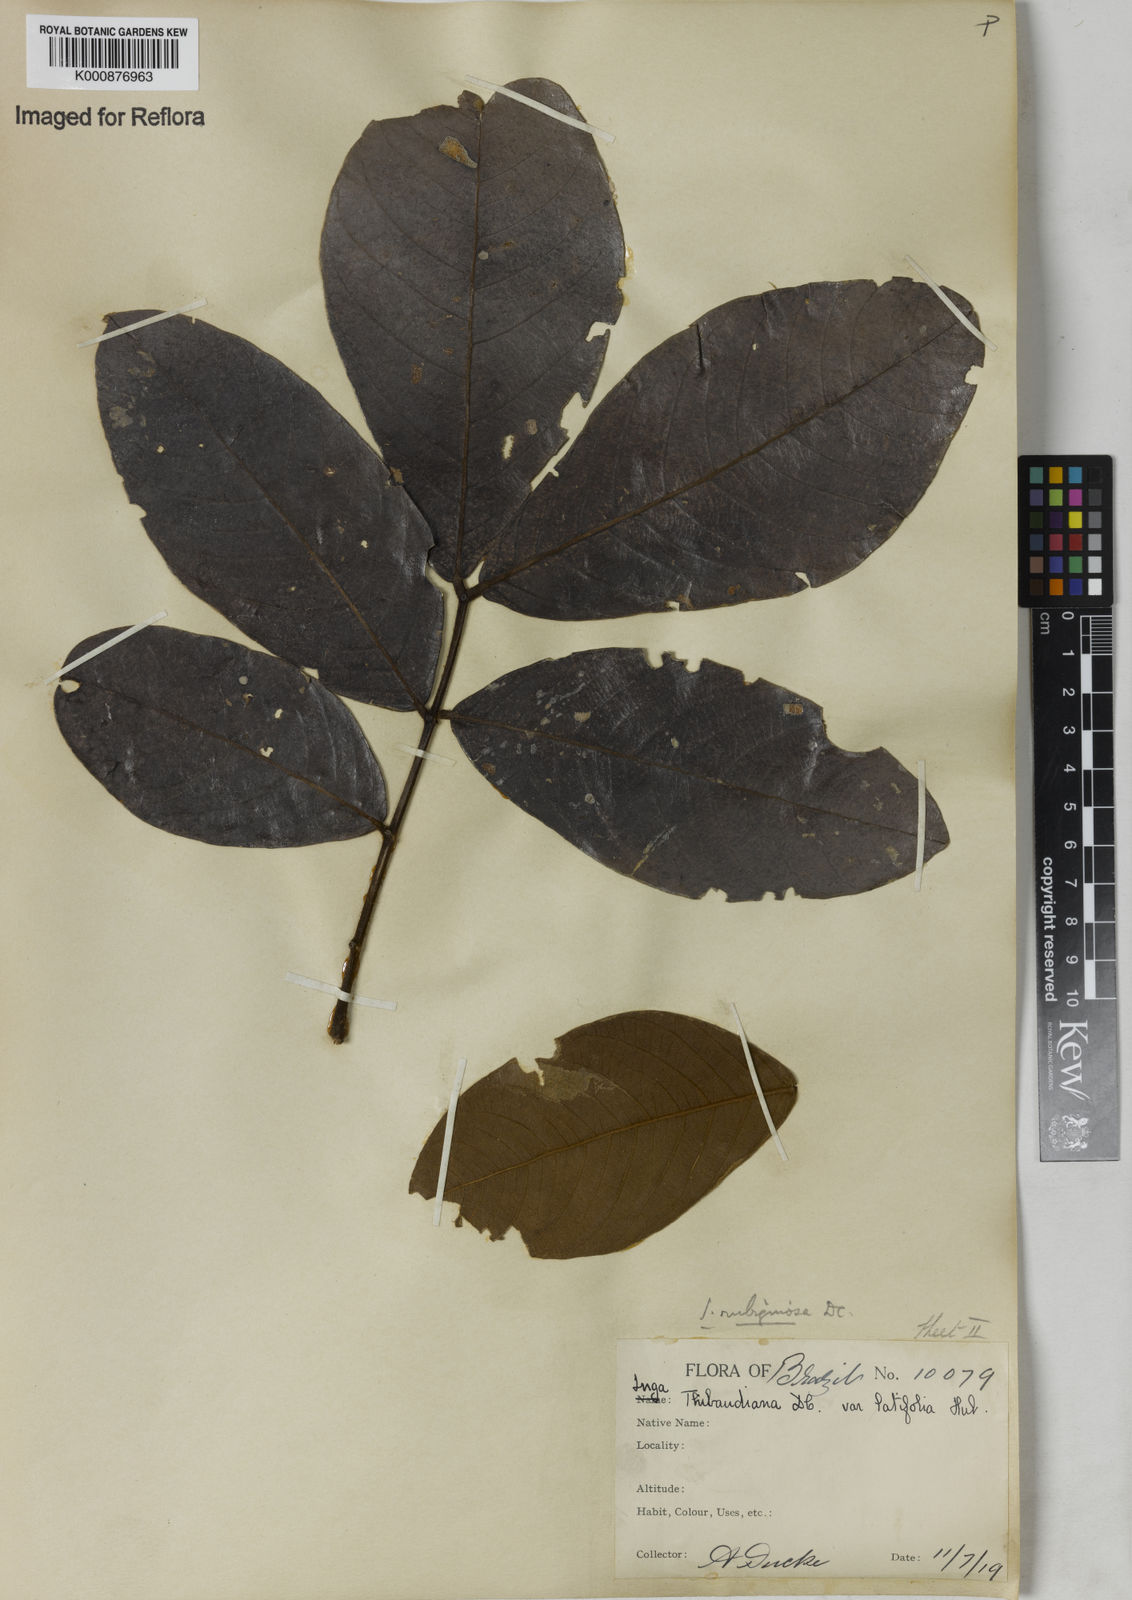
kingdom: Plantae
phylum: Tracheophyta
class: Magnoliopsida
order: Fabales
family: Fabaceae
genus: Inga
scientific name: Inga rubiginosa
